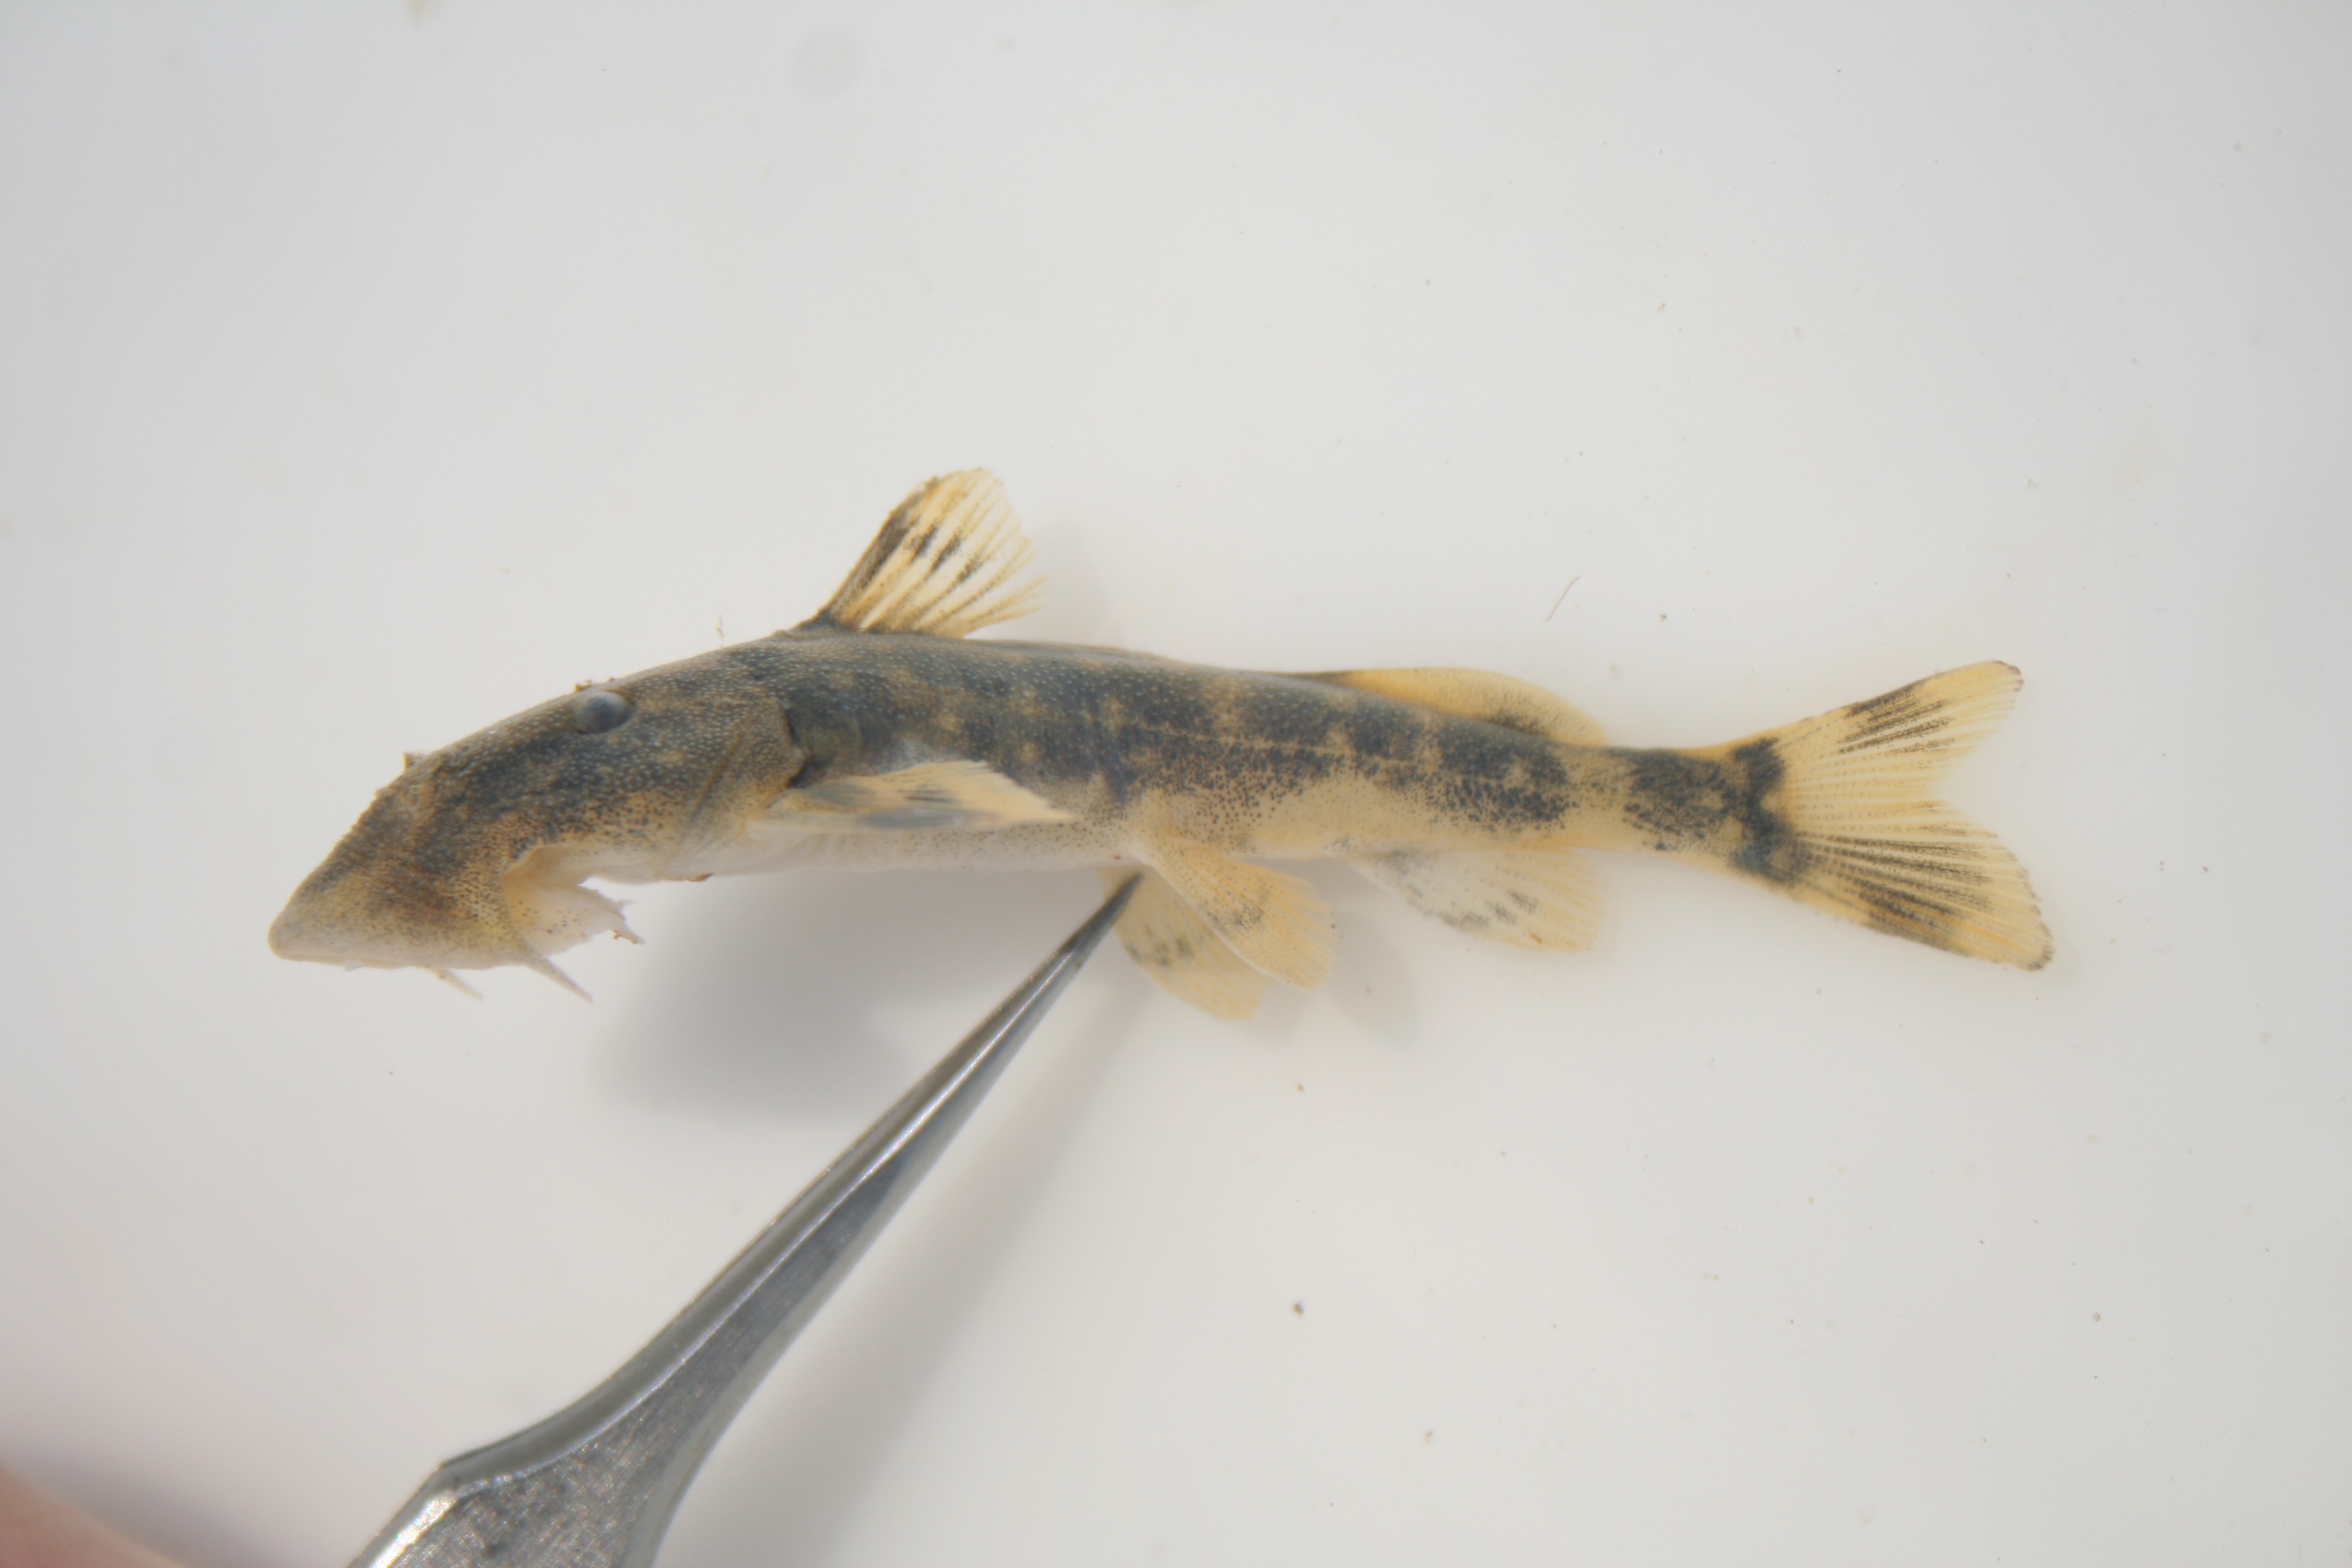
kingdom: Animalia
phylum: Chordata
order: Siluriformes
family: Mochokidae
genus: Chiloglanis
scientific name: Chiloglanis
